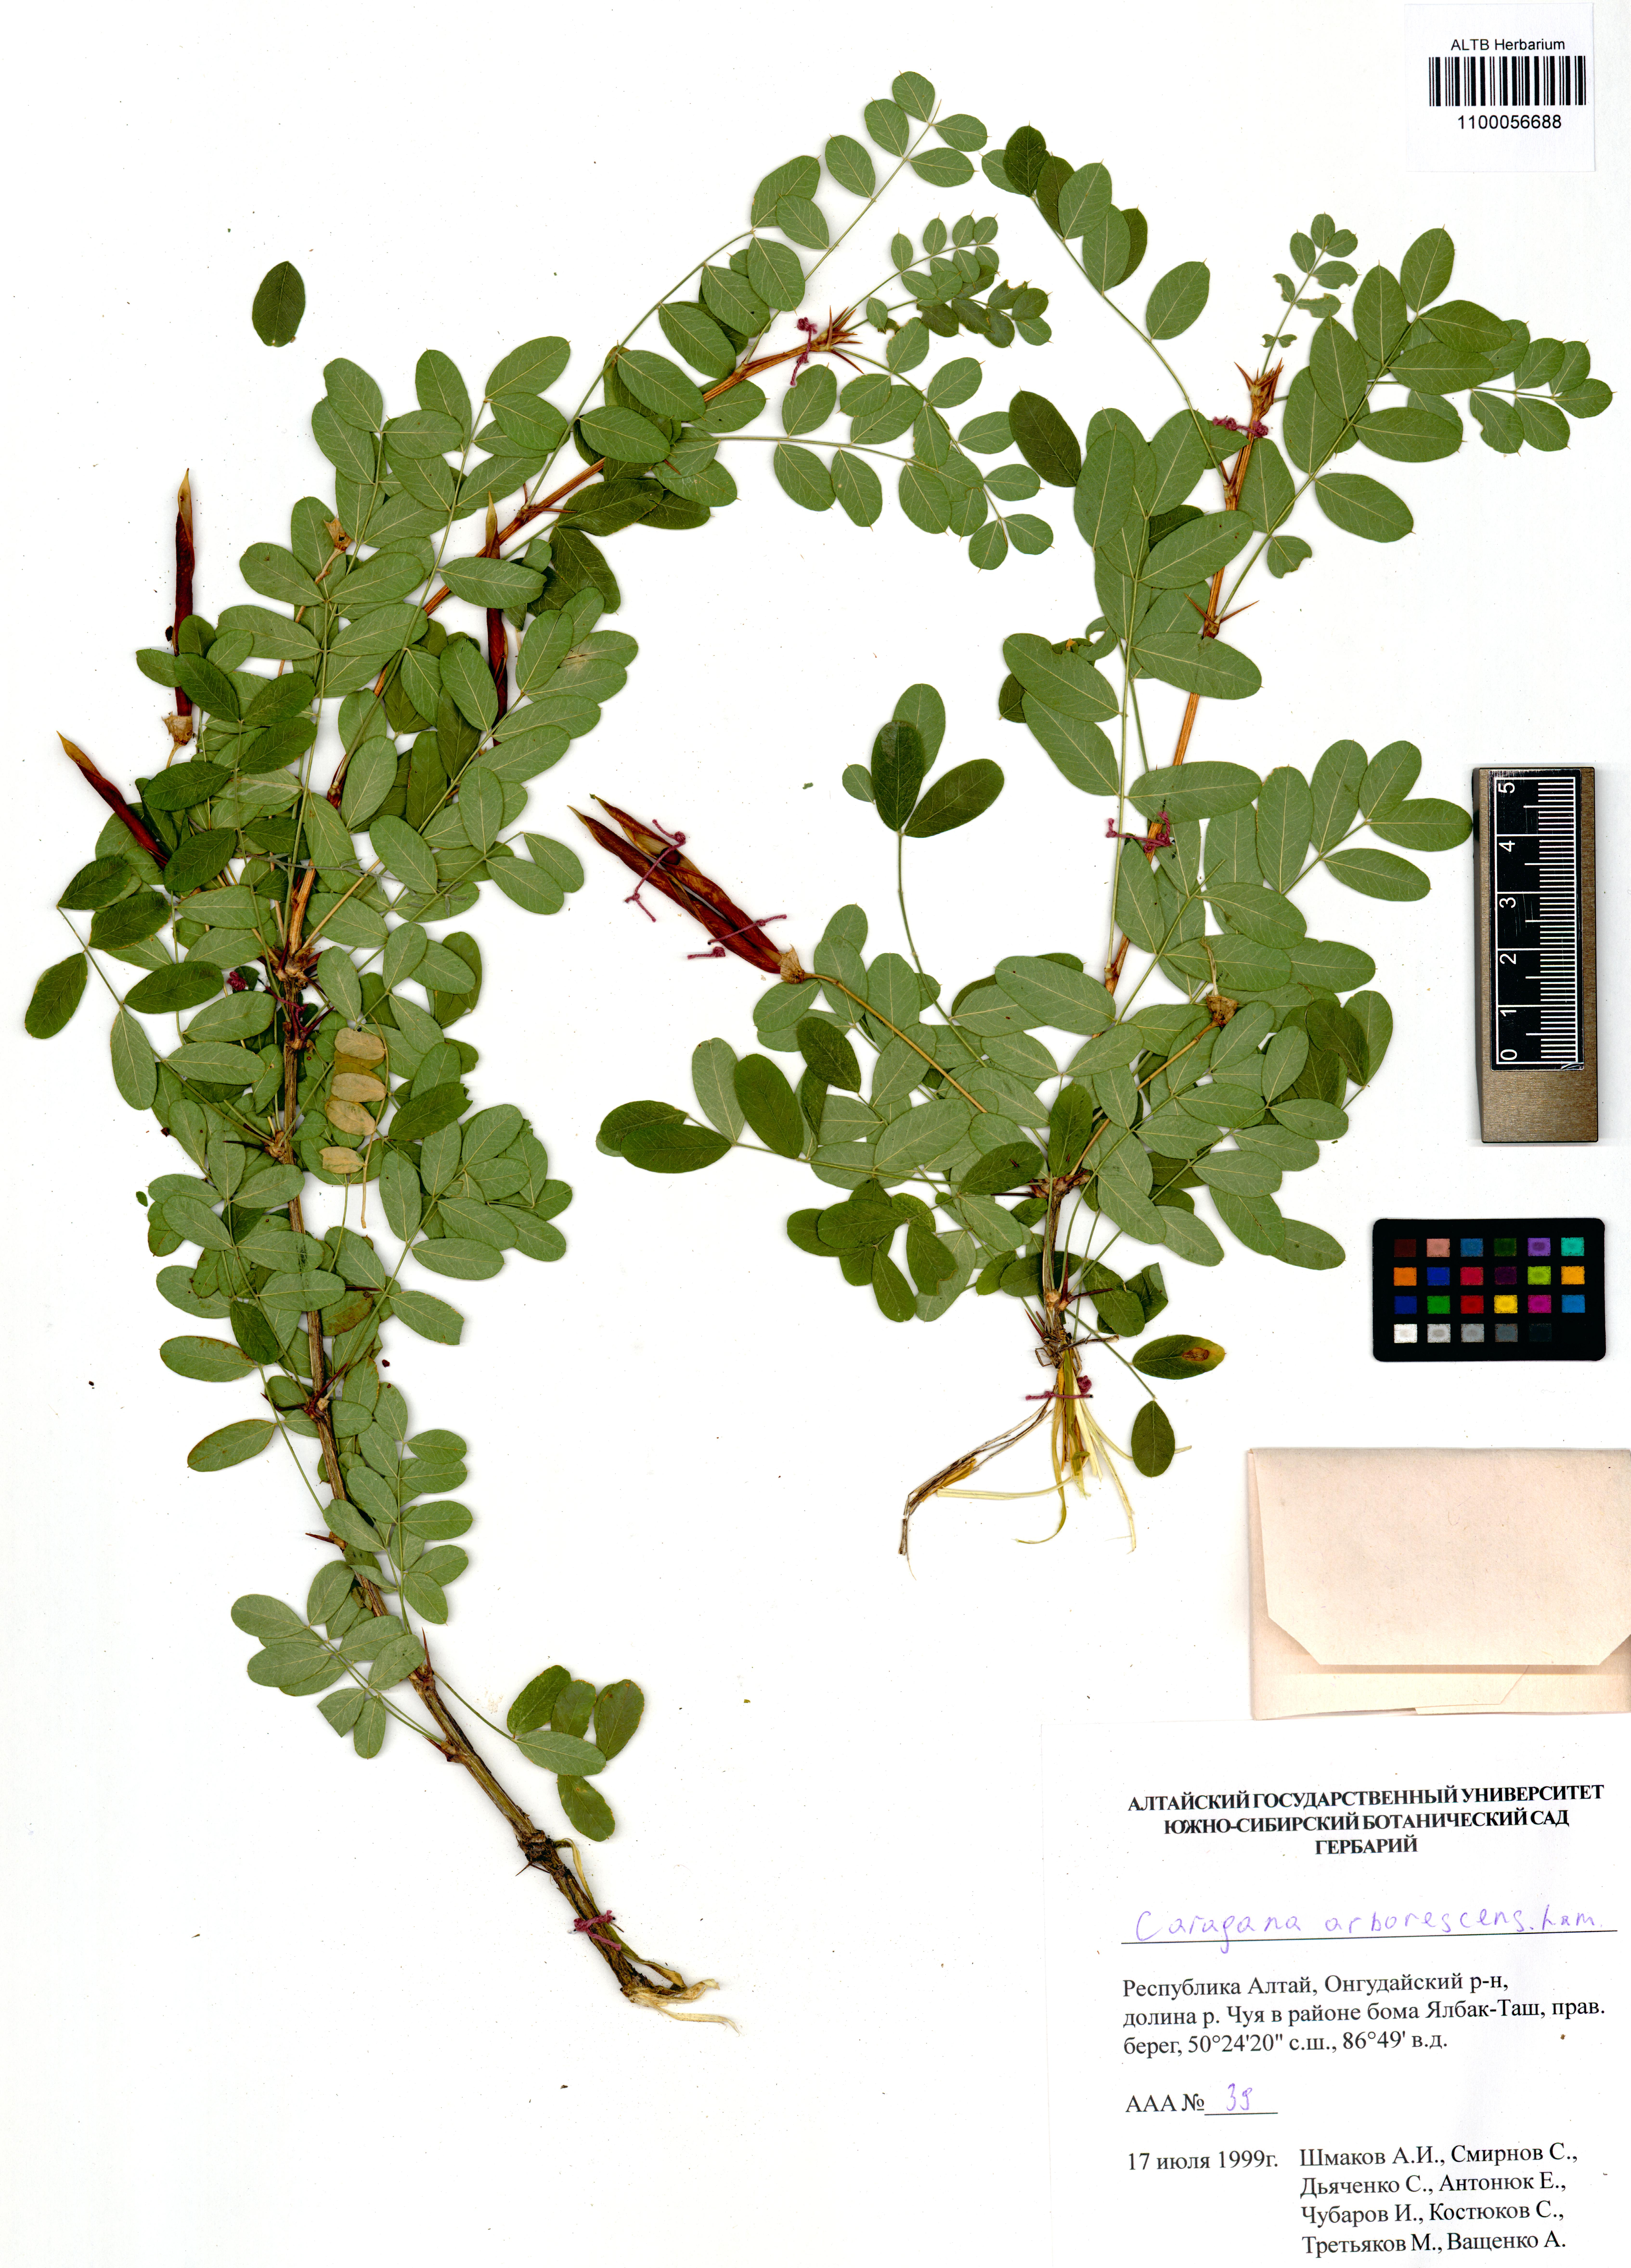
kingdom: Plantae
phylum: Tracheophyta
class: Magnoliopsida
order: Fabales
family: Fabaceae
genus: Caragana
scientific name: Caragana arborescens
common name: Siberian peashrub
